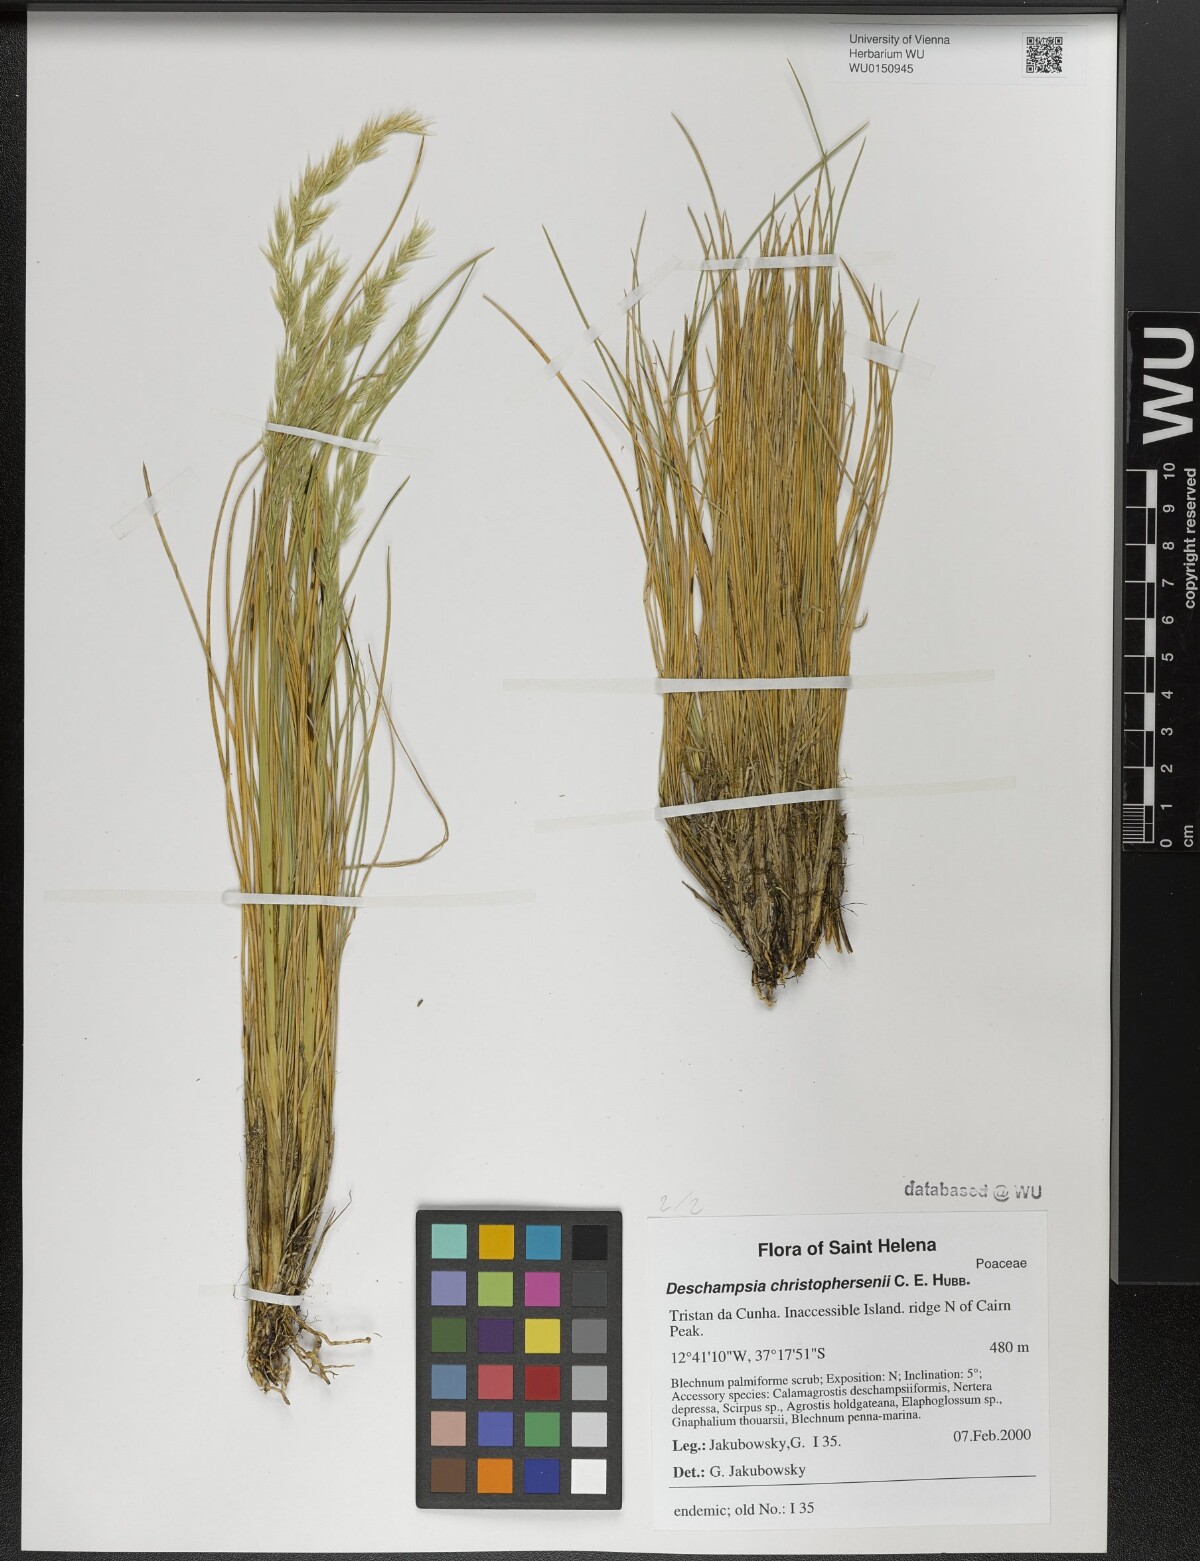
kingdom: Plantae
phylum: Tracheophyta
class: Liliopsida
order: Poales
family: Poaceae
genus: Deschampsia
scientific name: Deschampsia christophersenii
